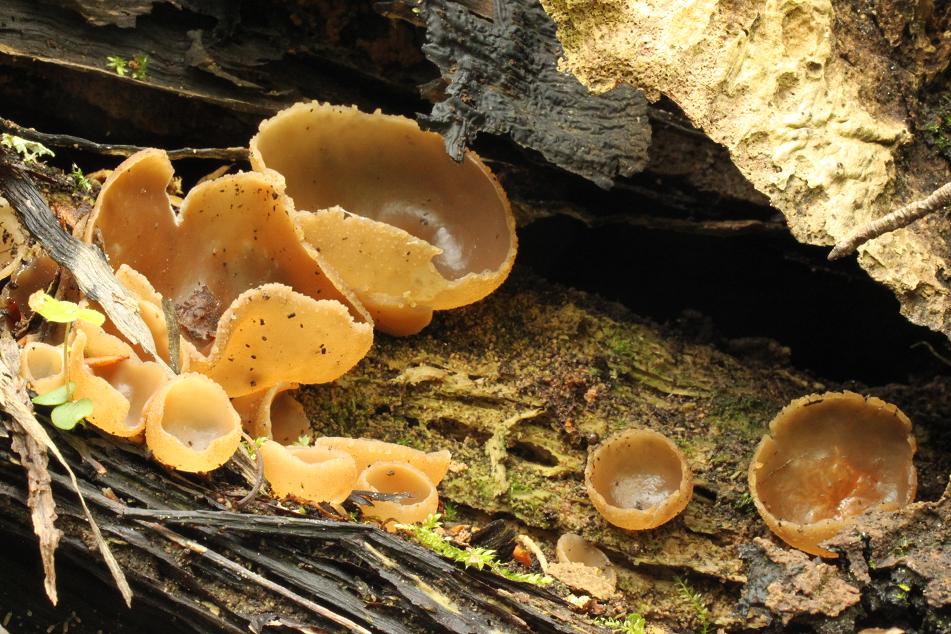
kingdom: Fungi
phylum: Ascomycota
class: Pezizomycetes
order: Pezizales
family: Pezizaceae
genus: Peziza
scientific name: Peziza varia
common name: Ved-bægersvamp
